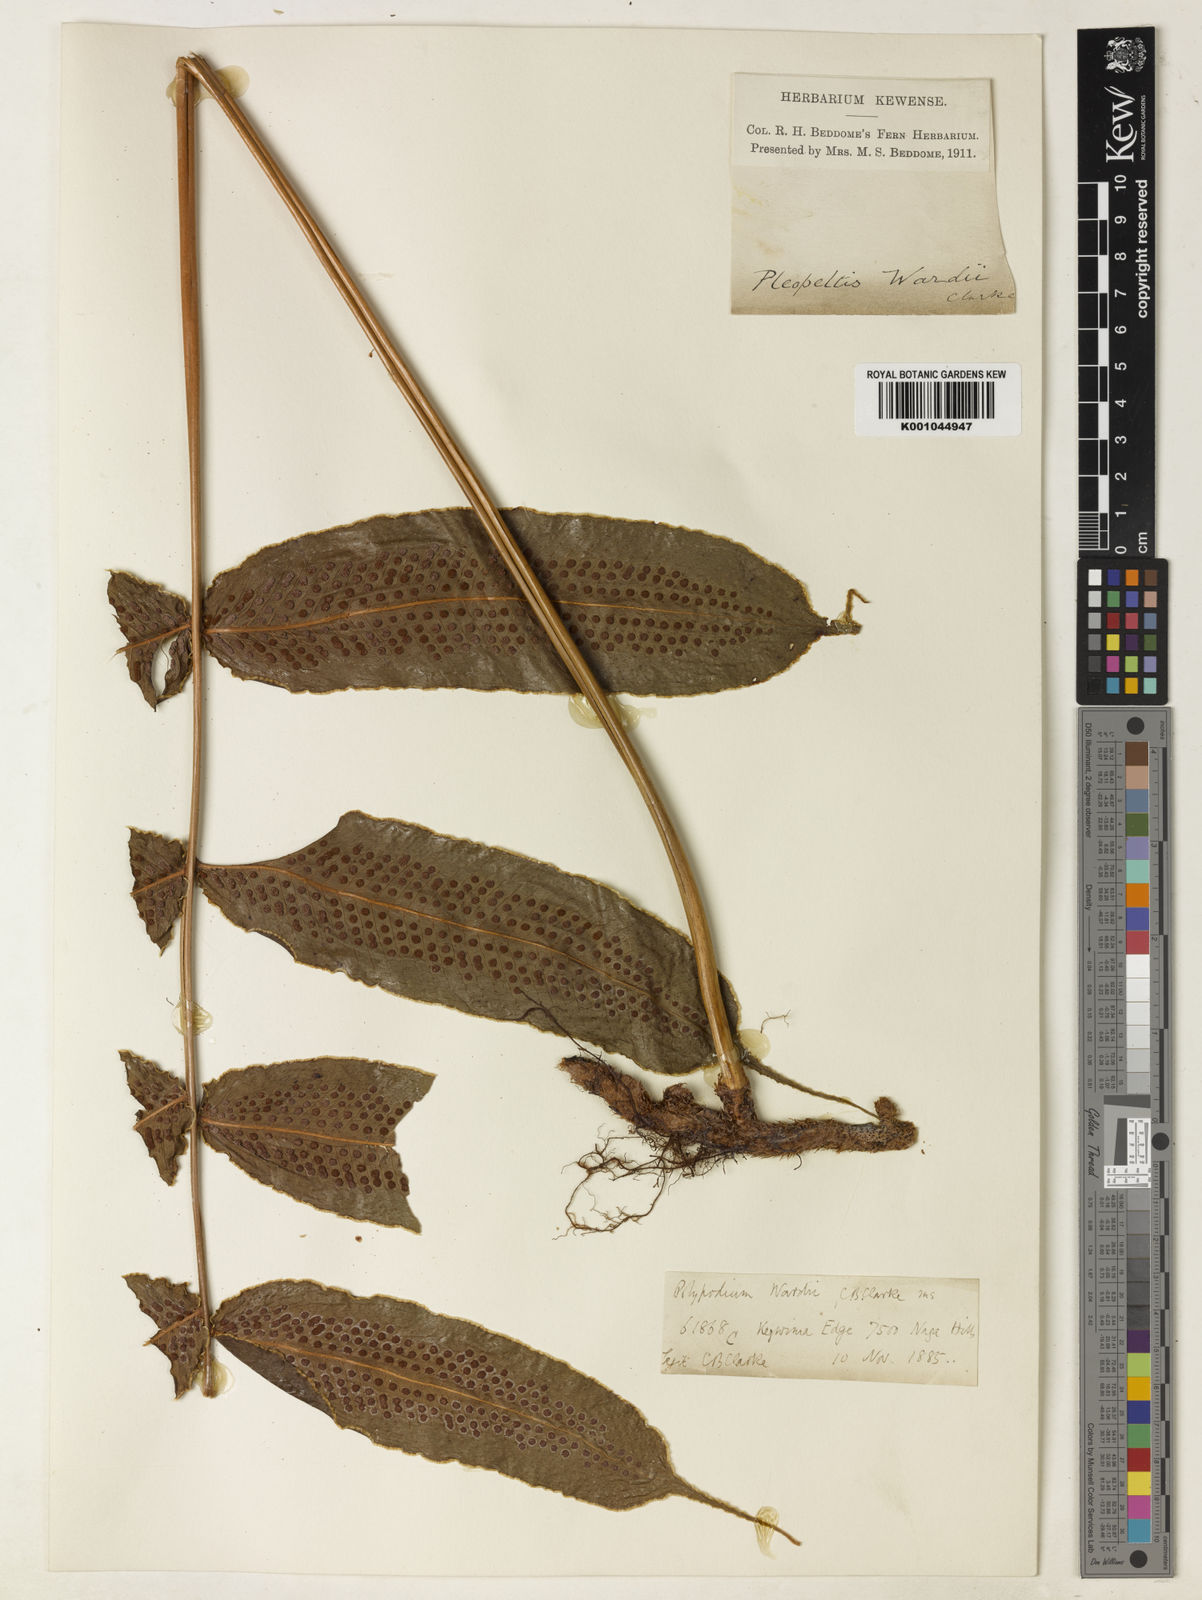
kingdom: Plantae
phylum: Tracheophyta
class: Polypodiopsida
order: Polypodiales
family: Polypodiaceae
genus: Selliguea
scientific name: Selliguea wardii
